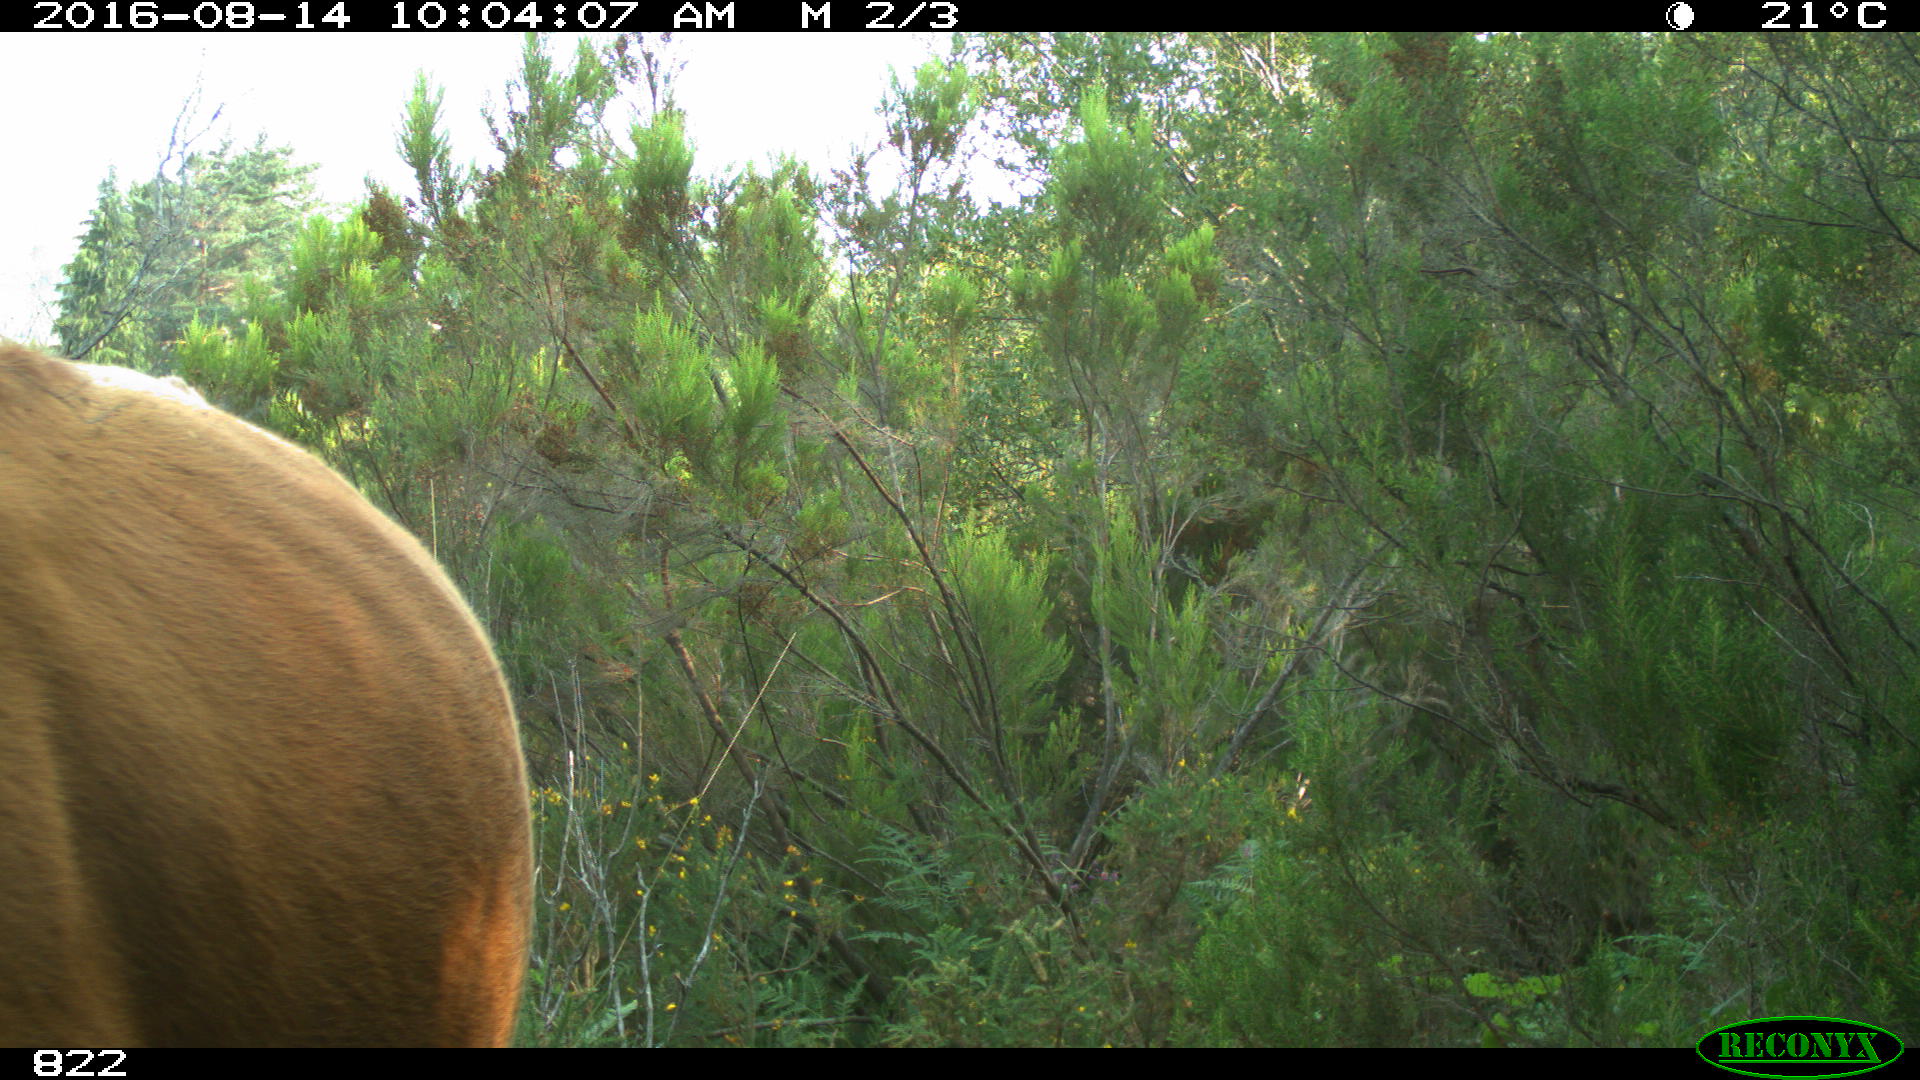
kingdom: Animalia
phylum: Chordata
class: Mammalia
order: Artiodactyla
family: Bovidae
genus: Bos
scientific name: Bos taurus
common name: Domesticated cattle
